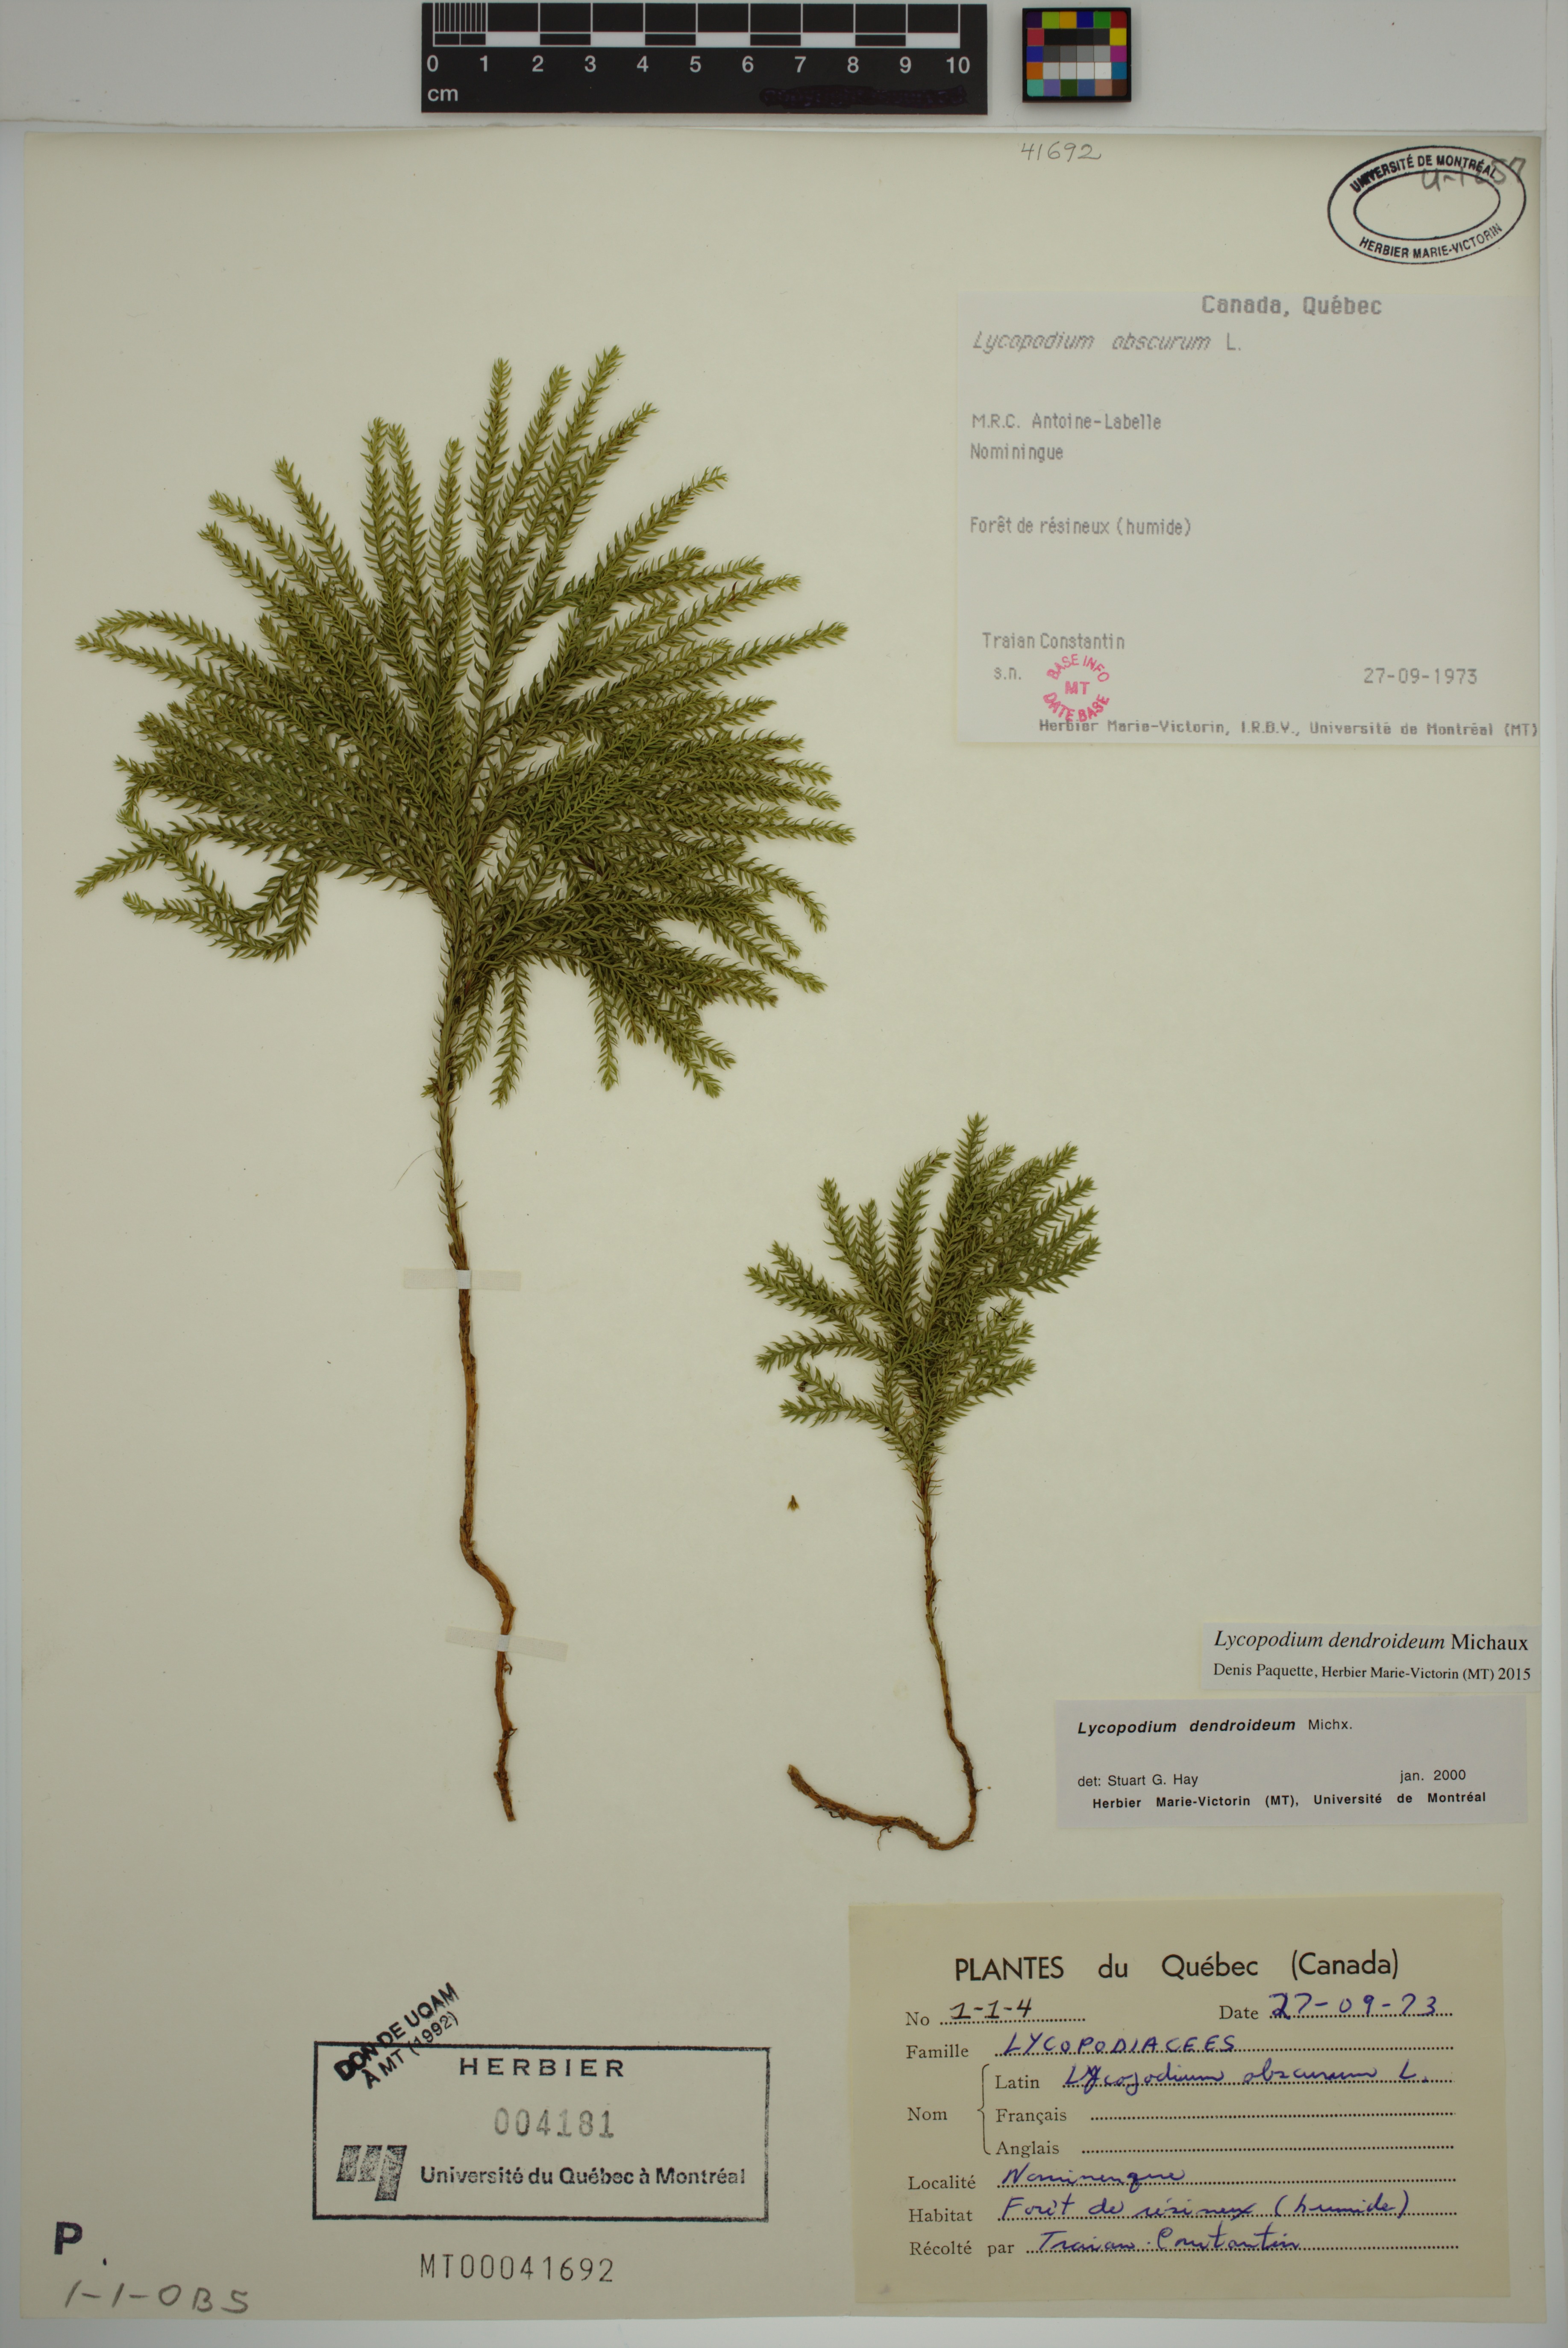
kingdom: Plantae
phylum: Tracheophyta
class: Lycopodiopsida
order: Lycopodiales
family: Lycopodiaceae
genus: Dendrolycopodium
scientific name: Dendrolycopodium dendroideum
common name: Northern tree-clubmoss
